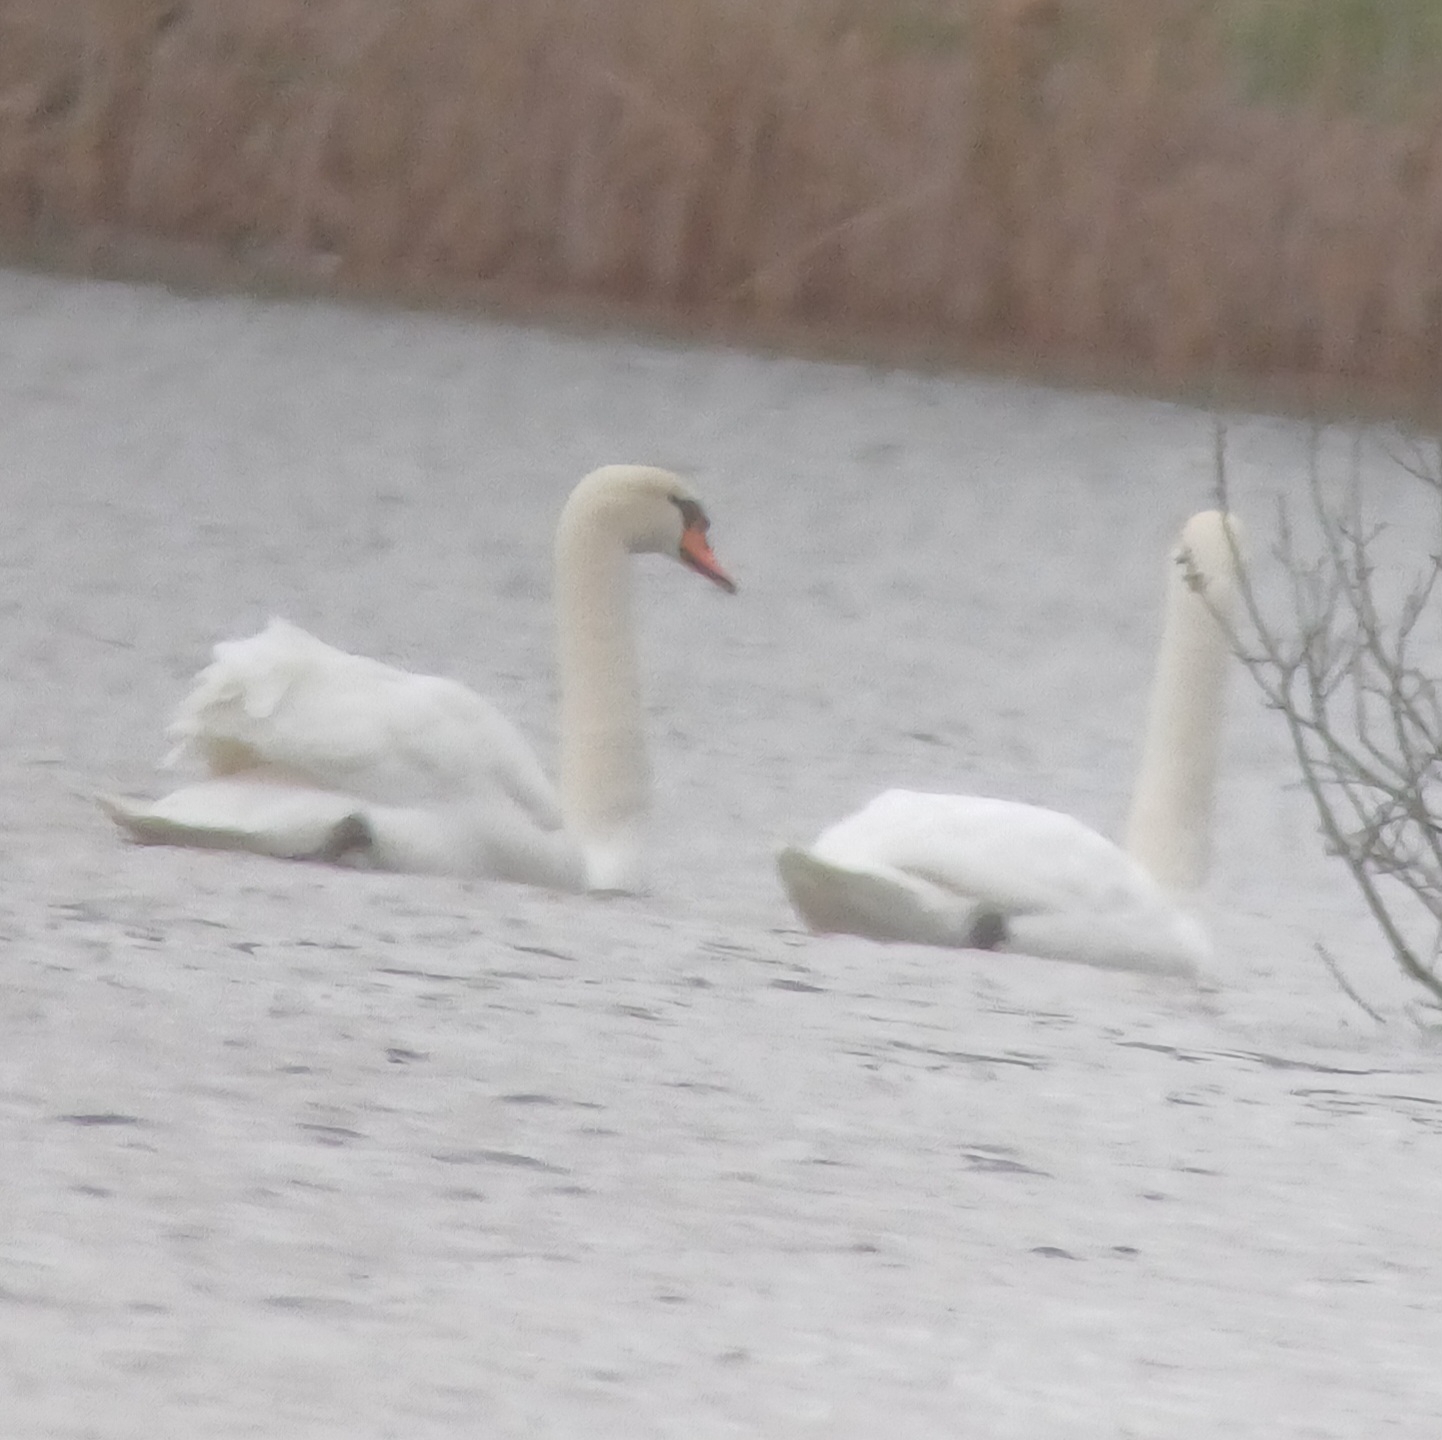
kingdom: Animalia
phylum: Chordata
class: Aves
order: Anseriformes
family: Anatidae
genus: Cygnus
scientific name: Cygnus olor
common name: Knopsvane
